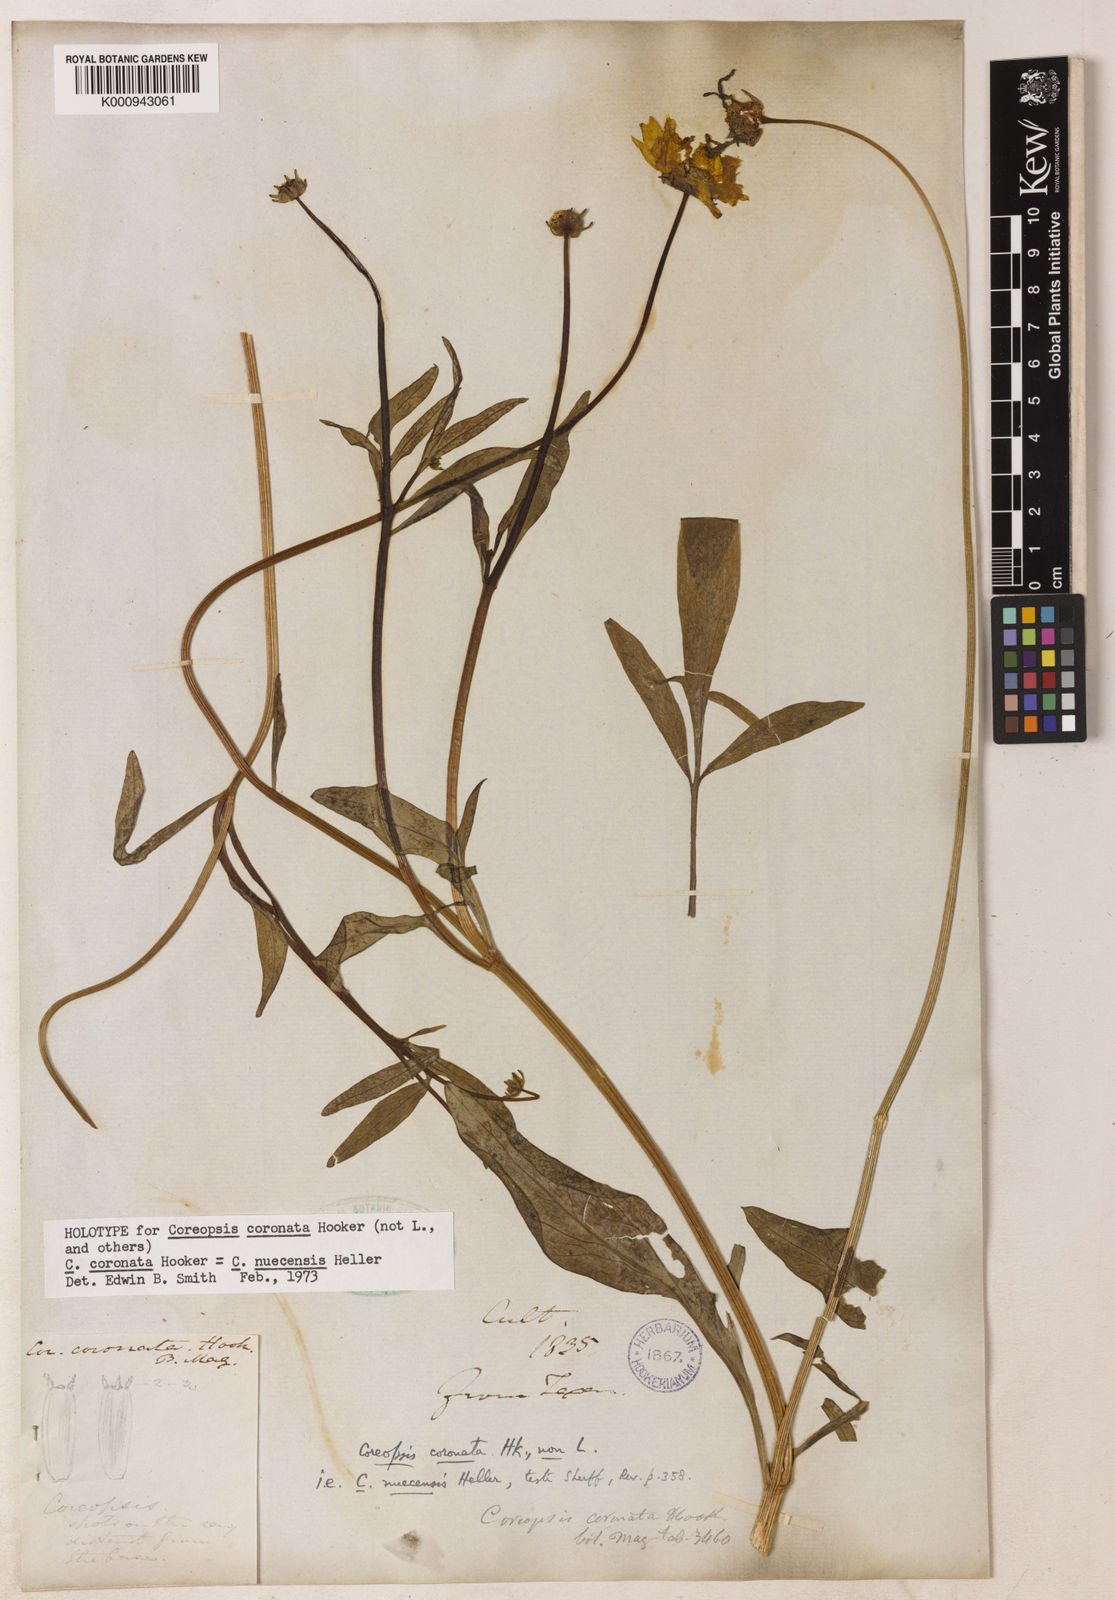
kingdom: Plantae
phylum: Tracheophyta
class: Magnoliopsida
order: Asterales
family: Asteraceae
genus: Coreopsis
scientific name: Coreopsis nuecensis
